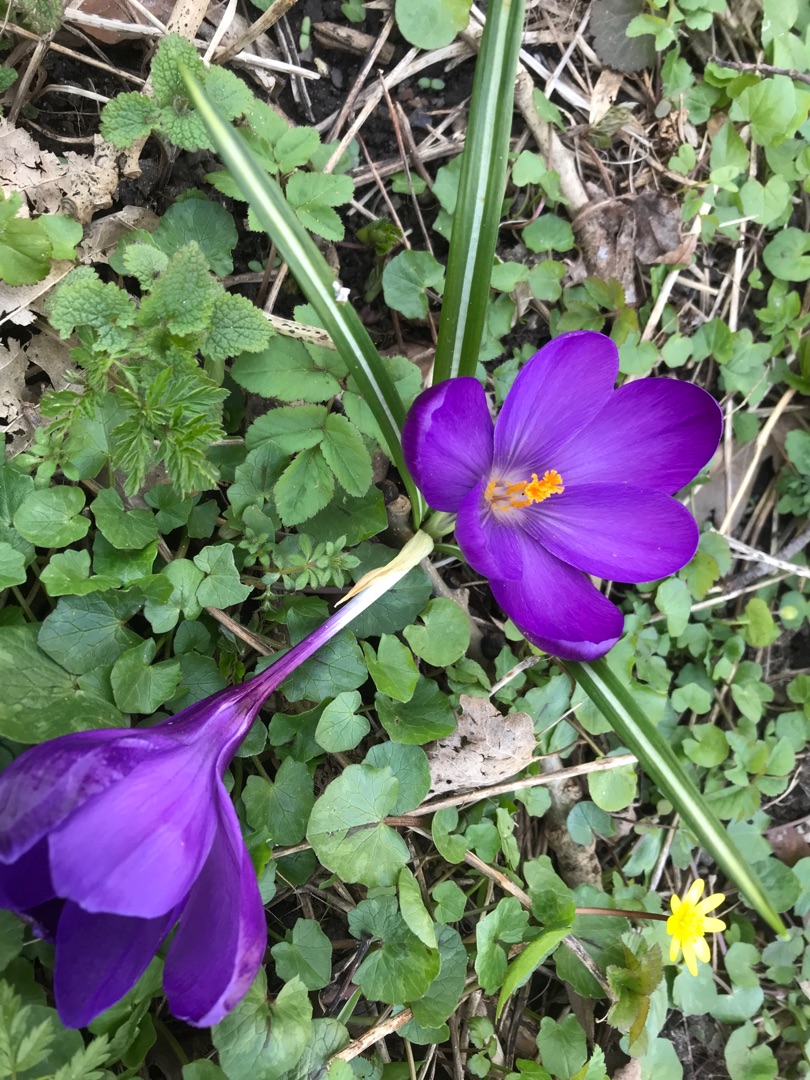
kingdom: Plantae
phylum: Tracheophyta
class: Liliopsida
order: Asparagales
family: Iridaceae
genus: Crocus
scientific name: Crocus vernus
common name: Vår-krokus
